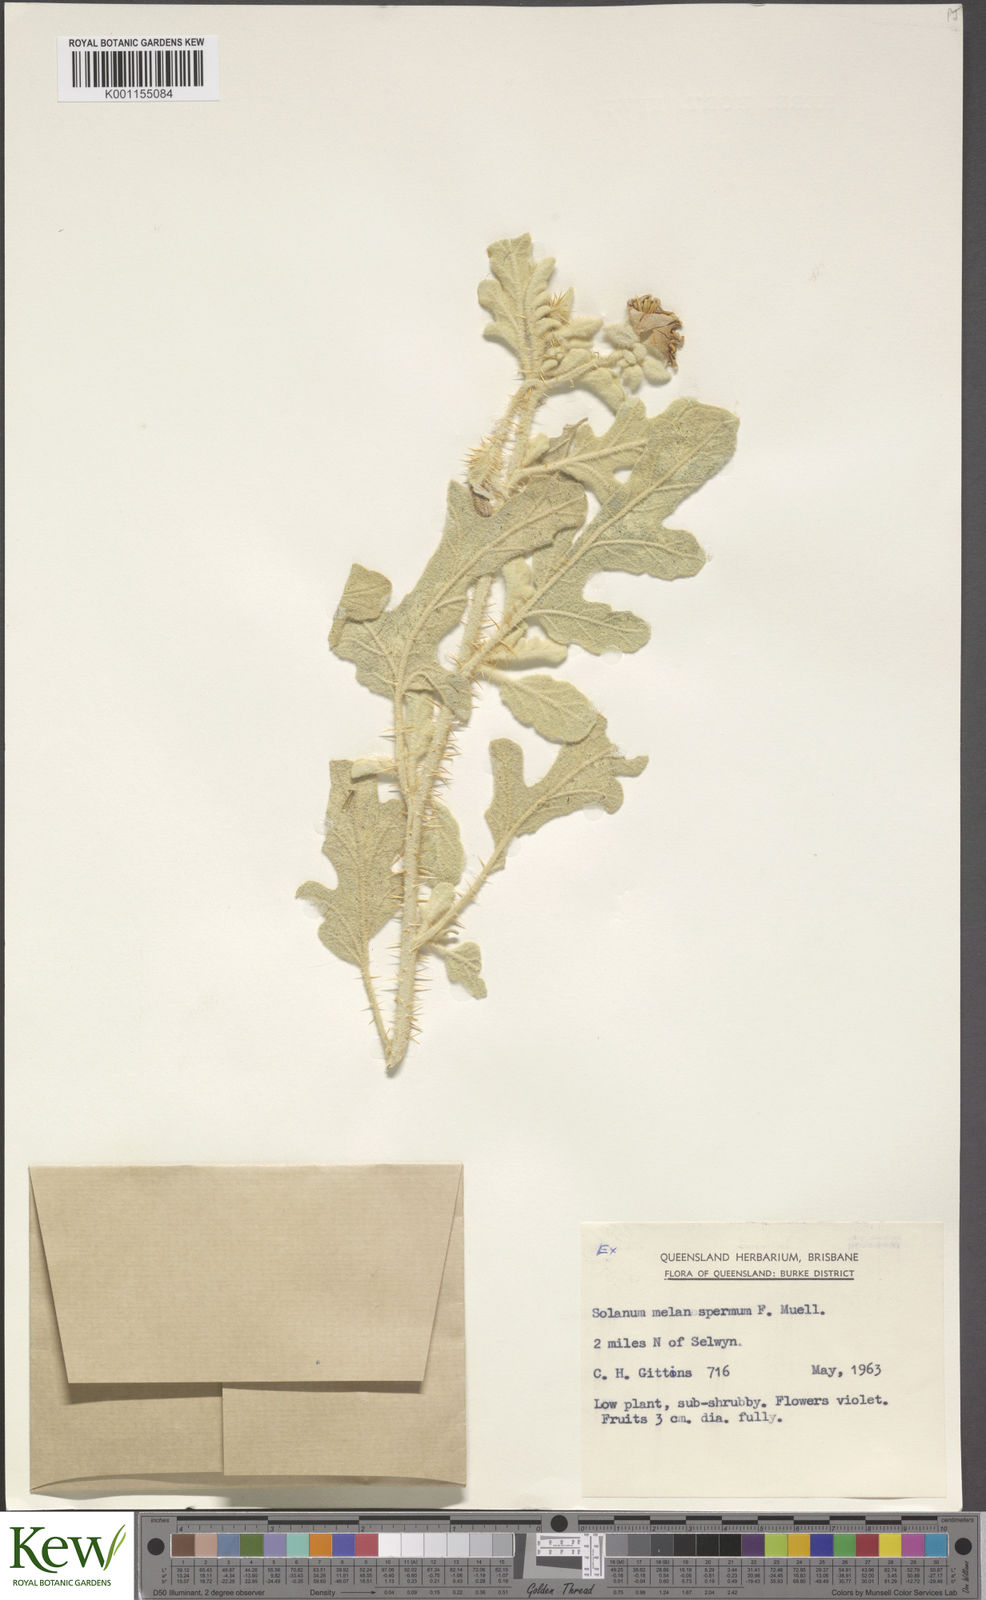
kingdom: Plantae
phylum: Tracheophyta
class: Magnoliopsida
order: Solanales
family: Solanaceae
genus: Solanum
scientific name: Solanum chippendalei
